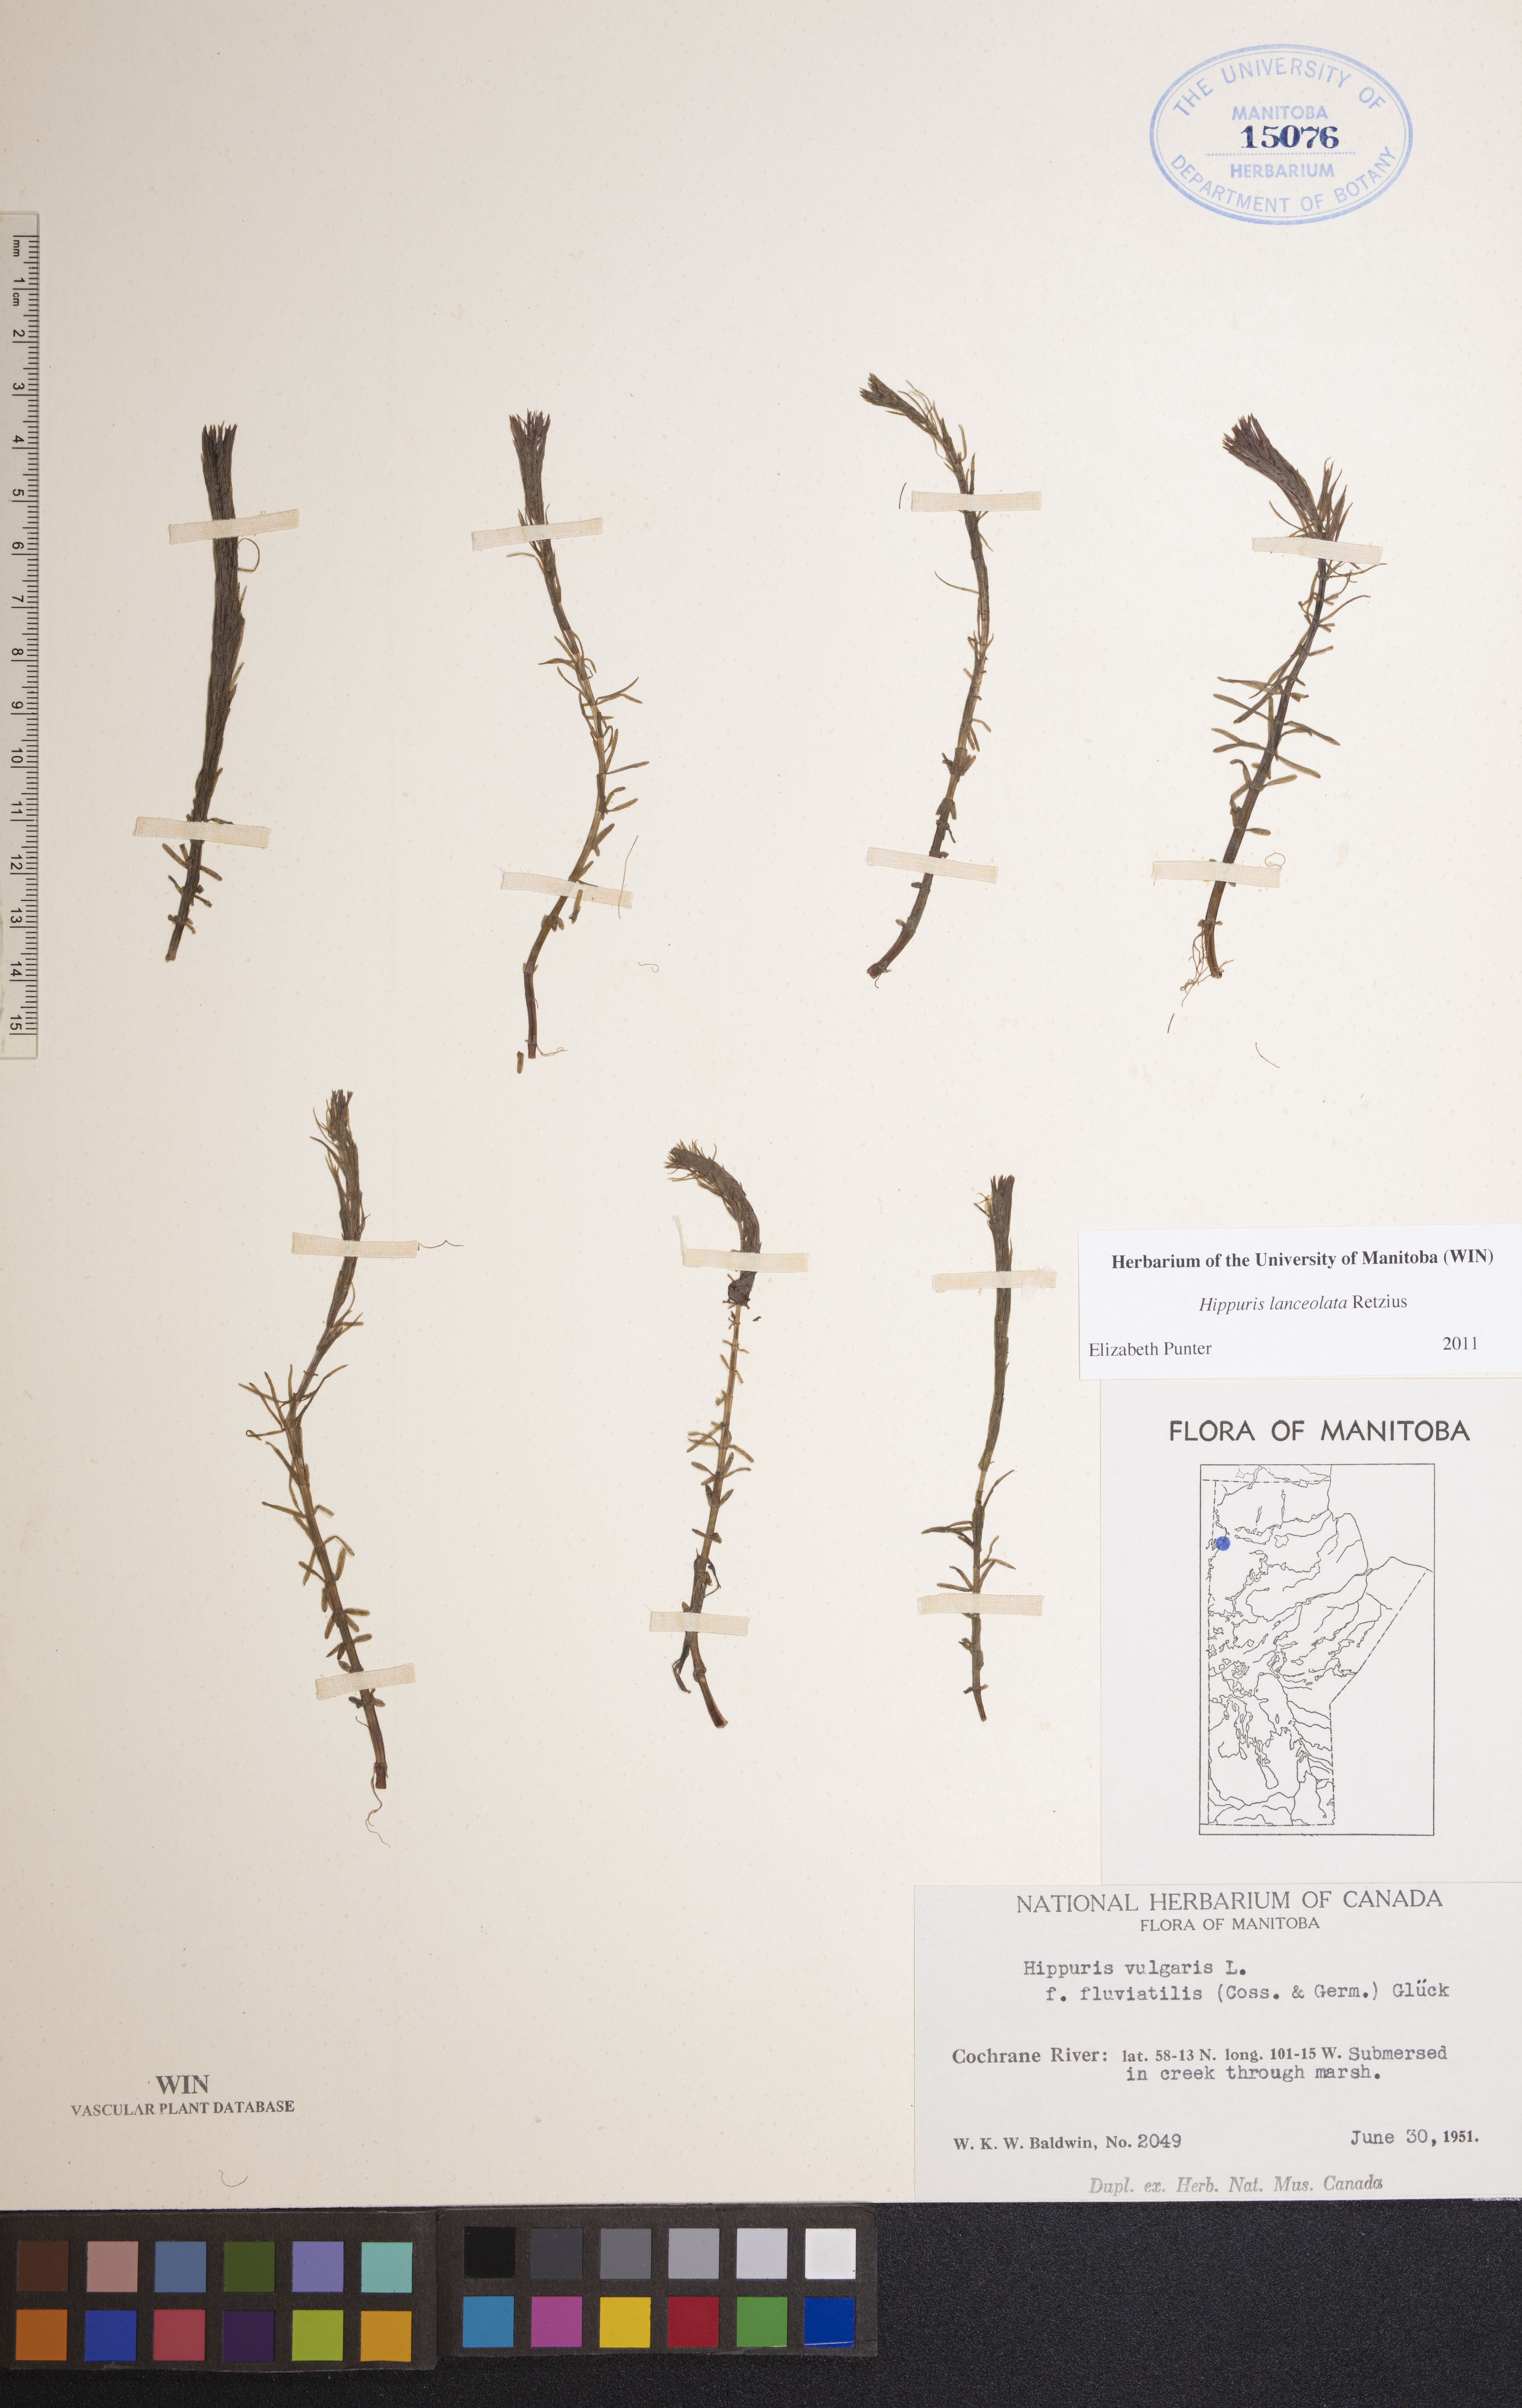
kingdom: Plantae
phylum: Tracheophyta
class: Magnoliopsida
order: Lamiales
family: Plantaginaceae
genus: Hippuris
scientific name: Hippuris lanceolata
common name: Lance-leaved mare's-tail
